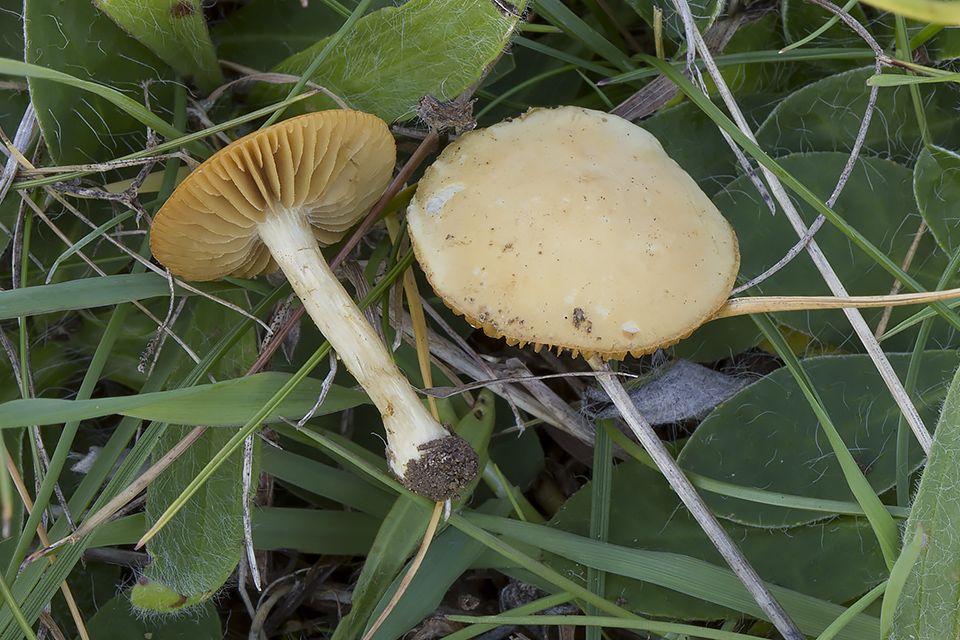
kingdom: Fungi
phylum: Basidiomycota
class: Agaricomycetes
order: Agaricales
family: Strophariaceae
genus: Agrocybe
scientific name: Agrocybe vervacti
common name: lav agerhat
